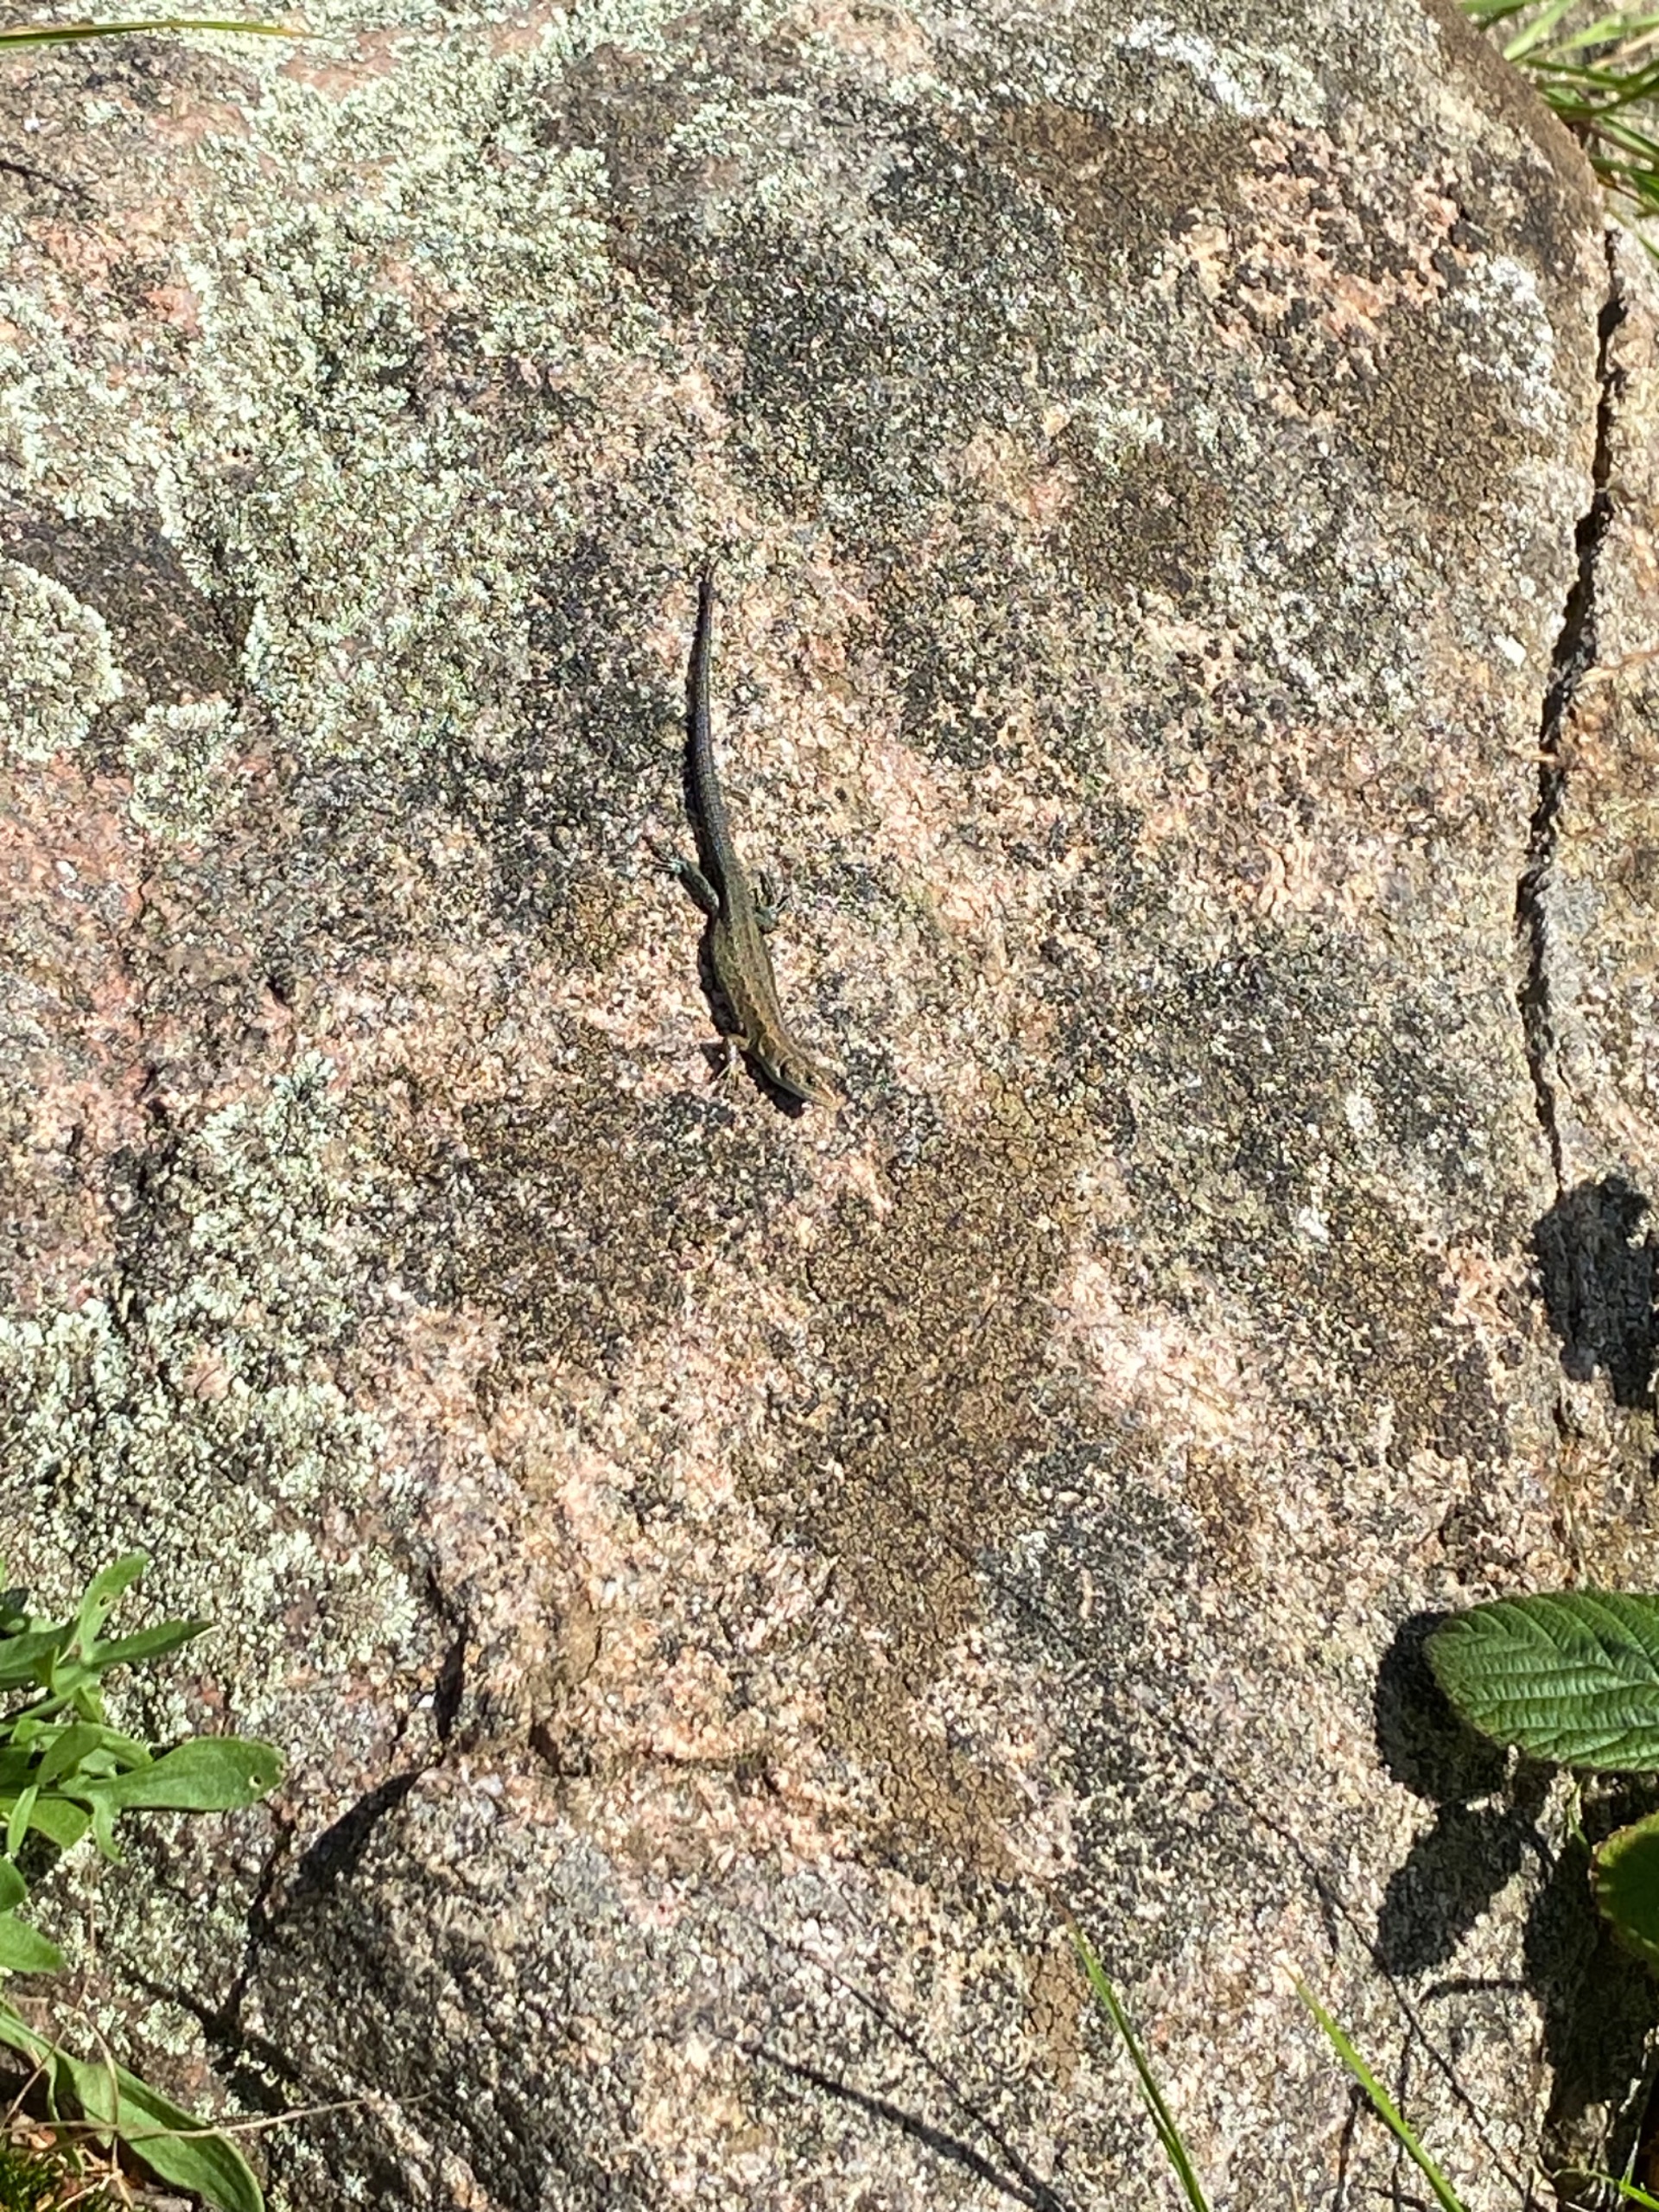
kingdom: Animalia
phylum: Chordata
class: Squamata
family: Lacertidae
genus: Zootoca
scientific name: Zootoca vivipara
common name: Skovfirben
